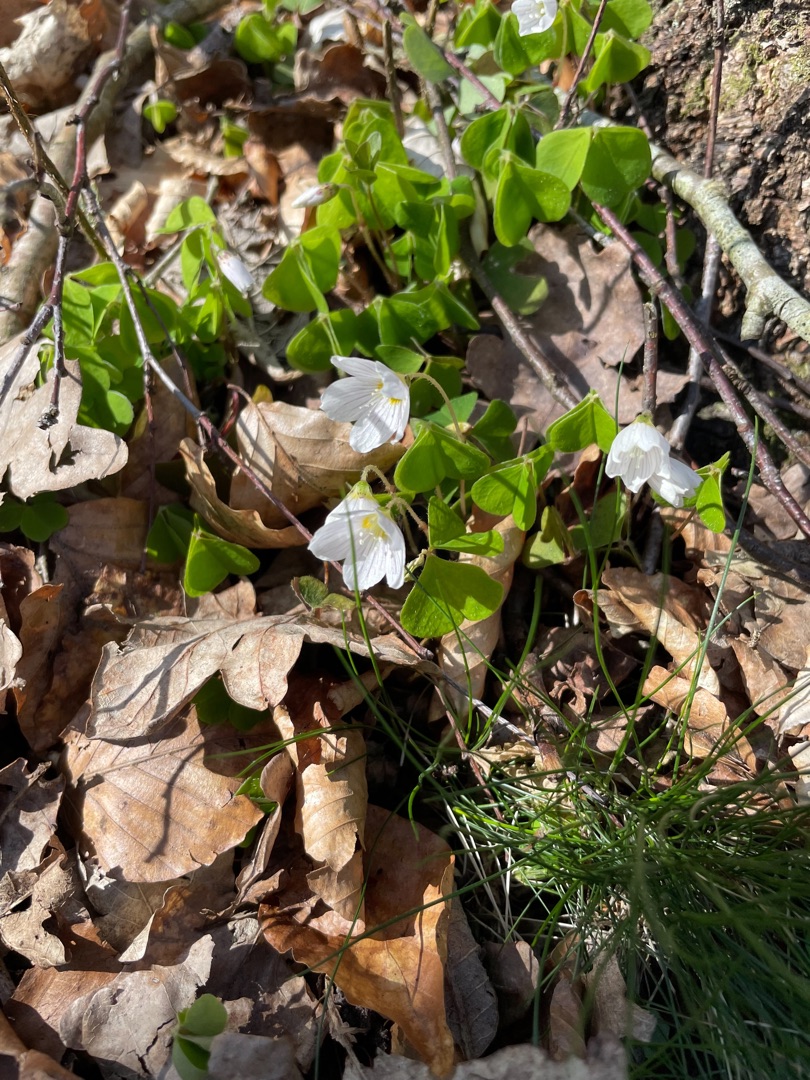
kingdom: Plantae
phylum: Tracheophyta
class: Magnoliopsida
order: Oxalidales
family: Oxalidaceae
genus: Oxalis
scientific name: Oxalis acetosella
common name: Skovsyre
